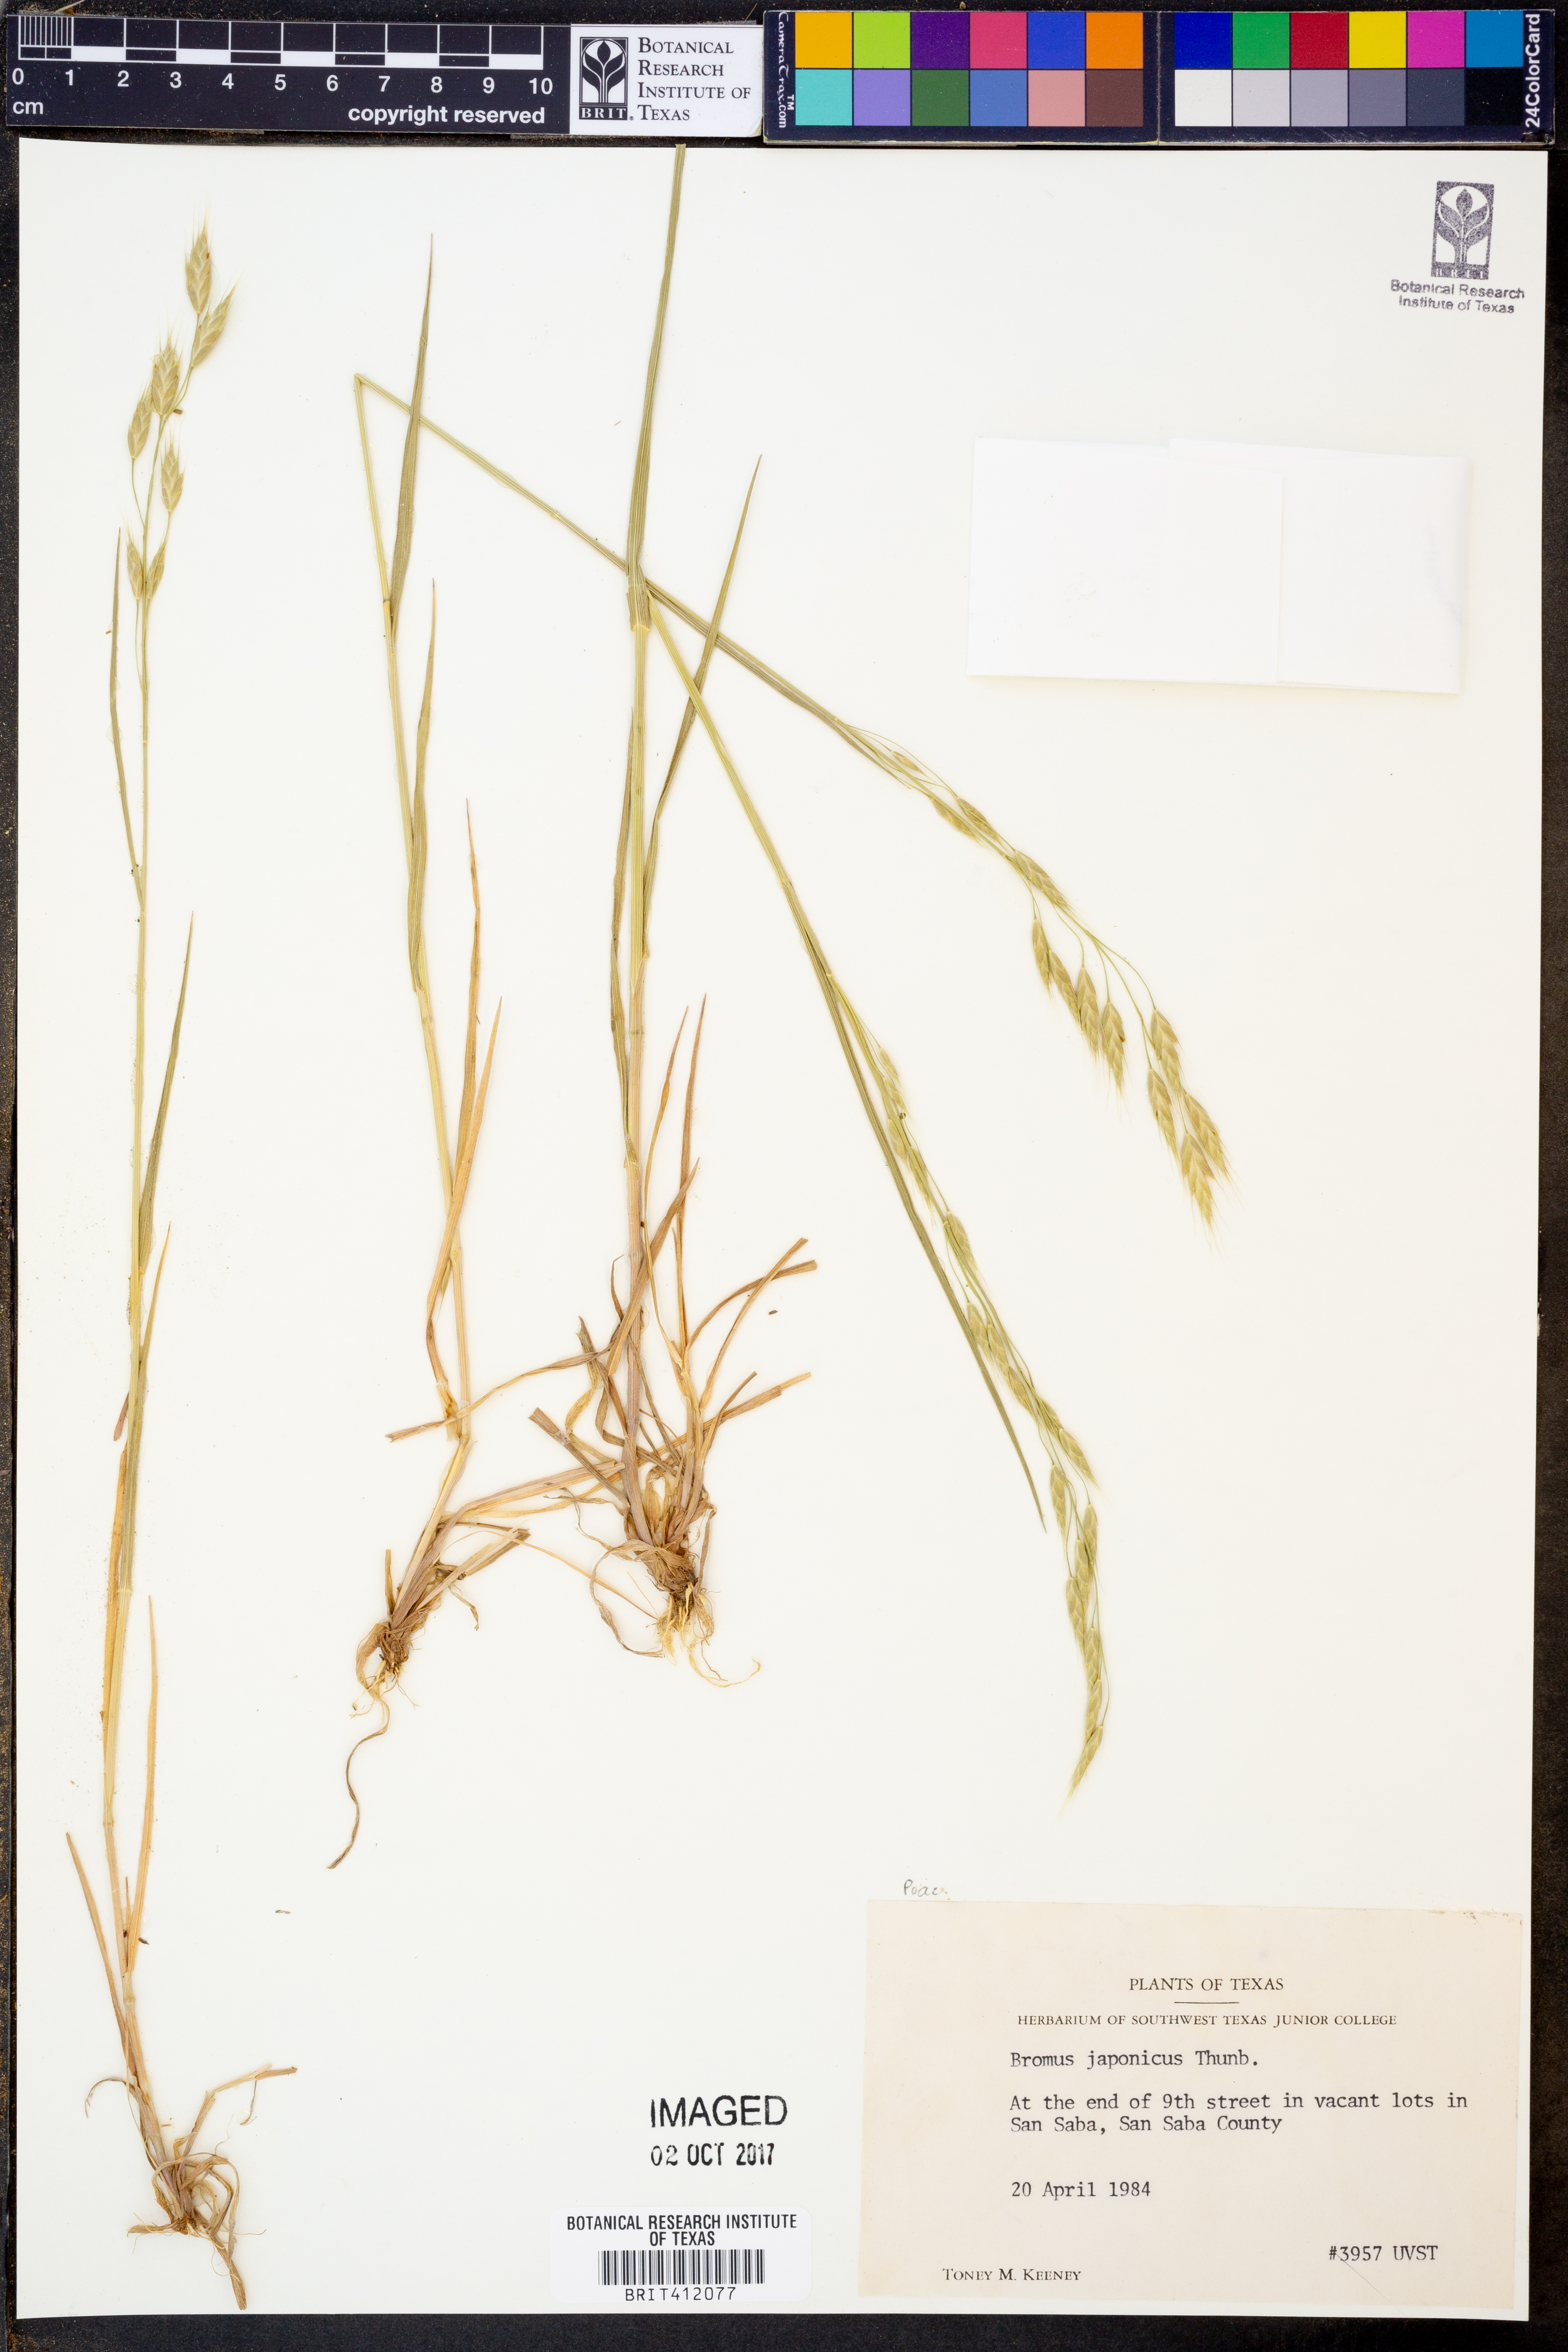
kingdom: Plantae
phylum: Tracheophyta
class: Liliopsida
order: Poales
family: Poaceae
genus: Bromus
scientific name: Bromus japonicus
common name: Japanese brome
